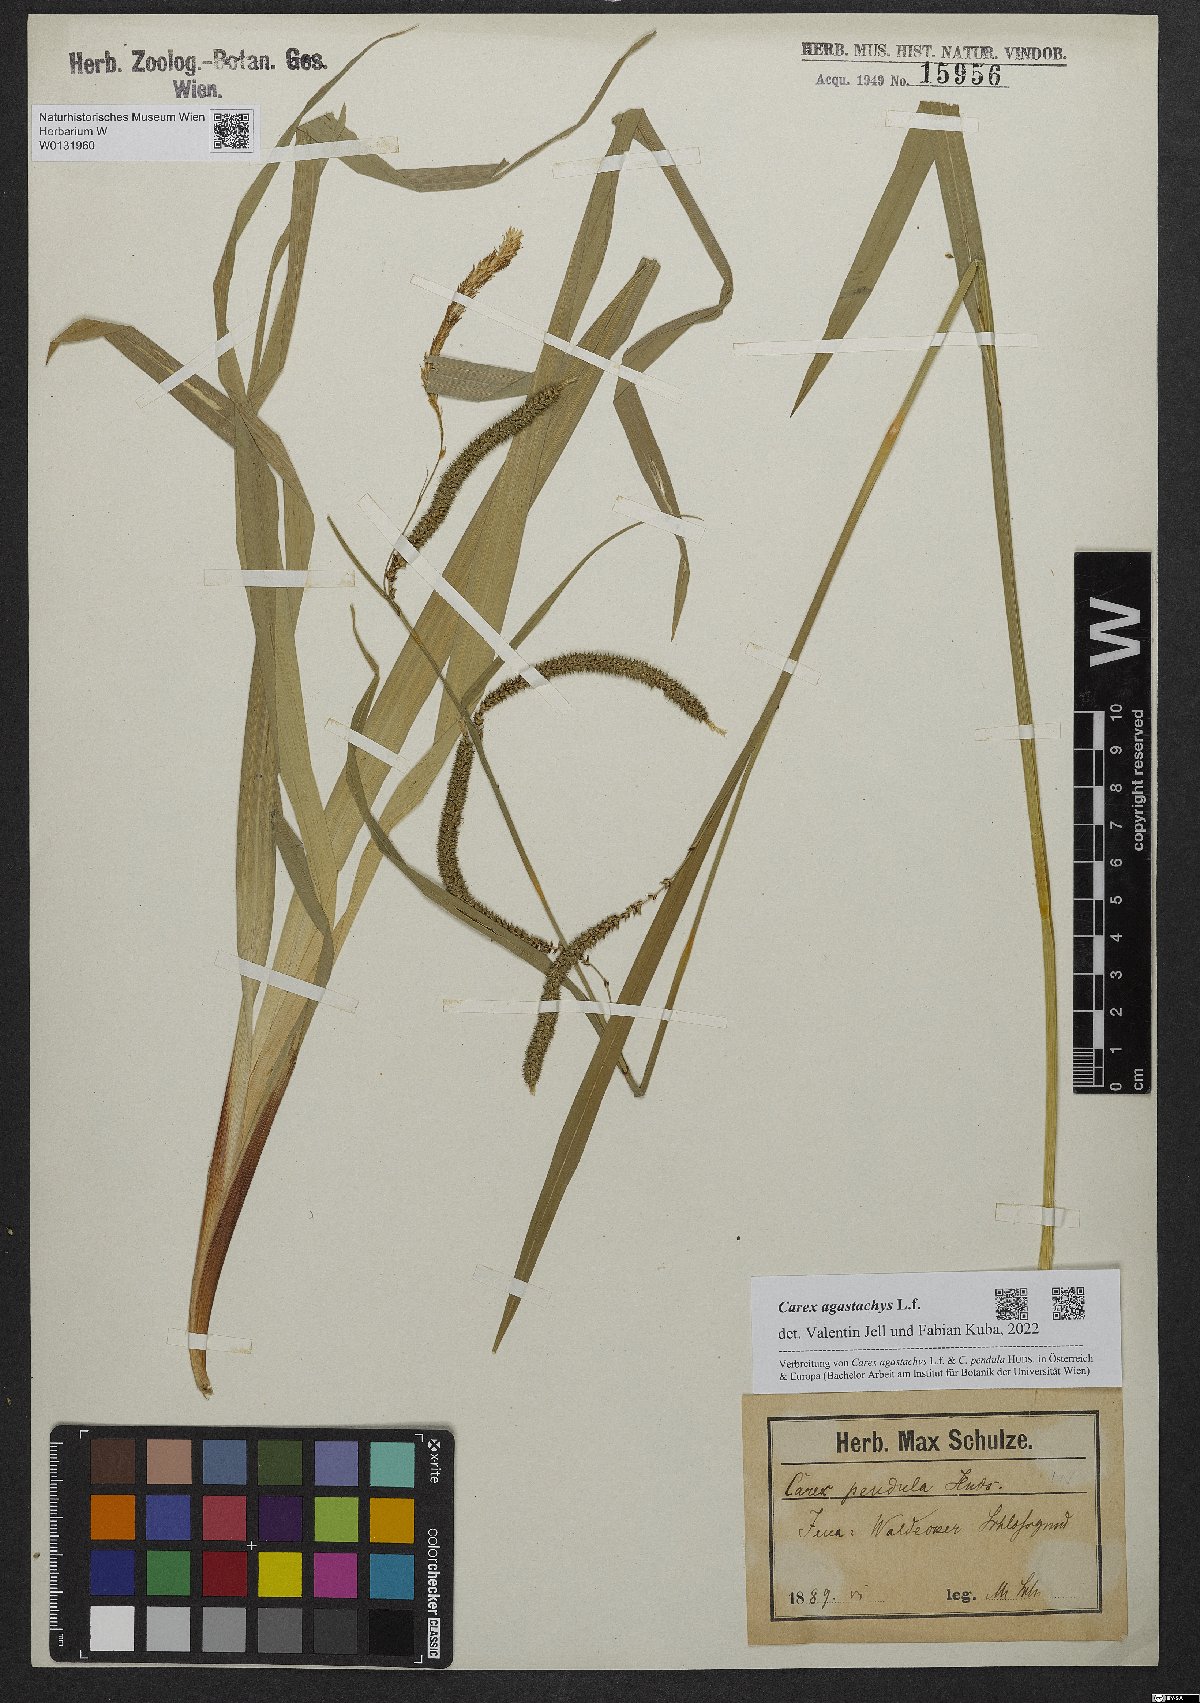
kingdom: Plantae
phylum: Tracheophyta
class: Liliopsida
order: Poales
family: Cyperaceae
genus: Carex
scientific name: Carex agastachys
